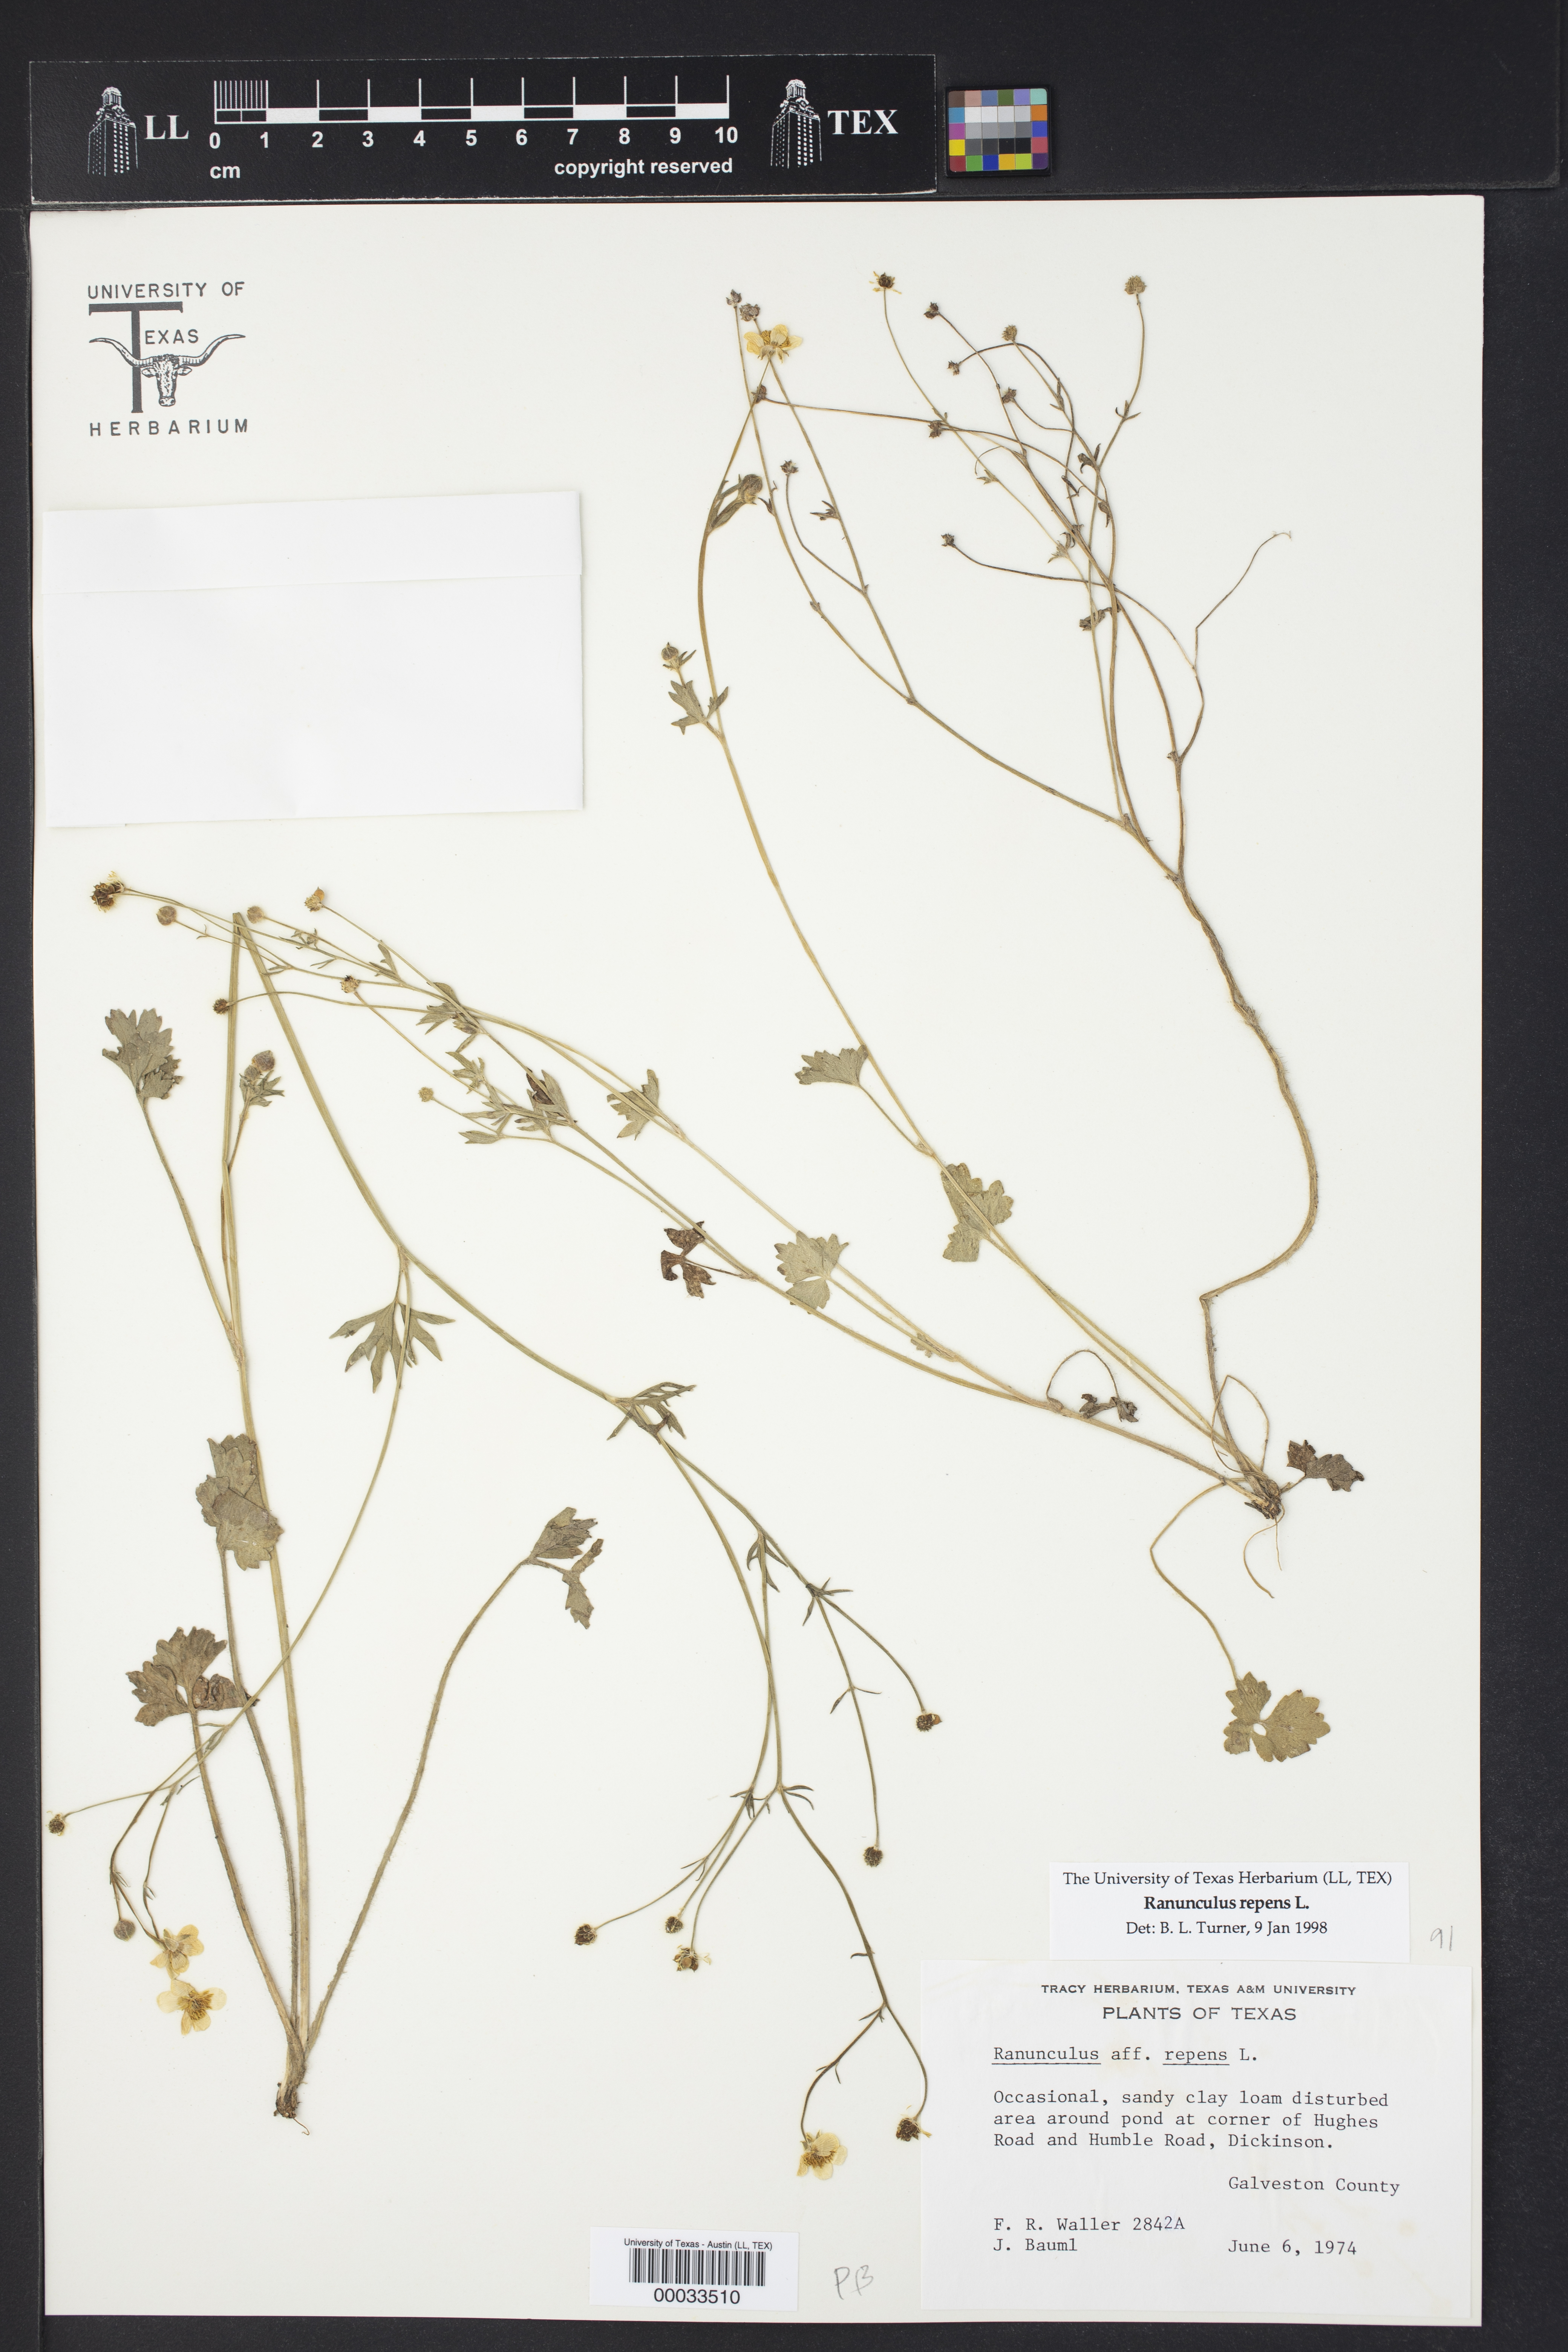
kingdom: Plantae
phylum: Tracheophyta
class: Magnoliopsida
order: Ranunculales
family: Ranunculaceae
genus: Ranunculus
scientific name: Ranunculus repens
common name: Creeping buttercup
